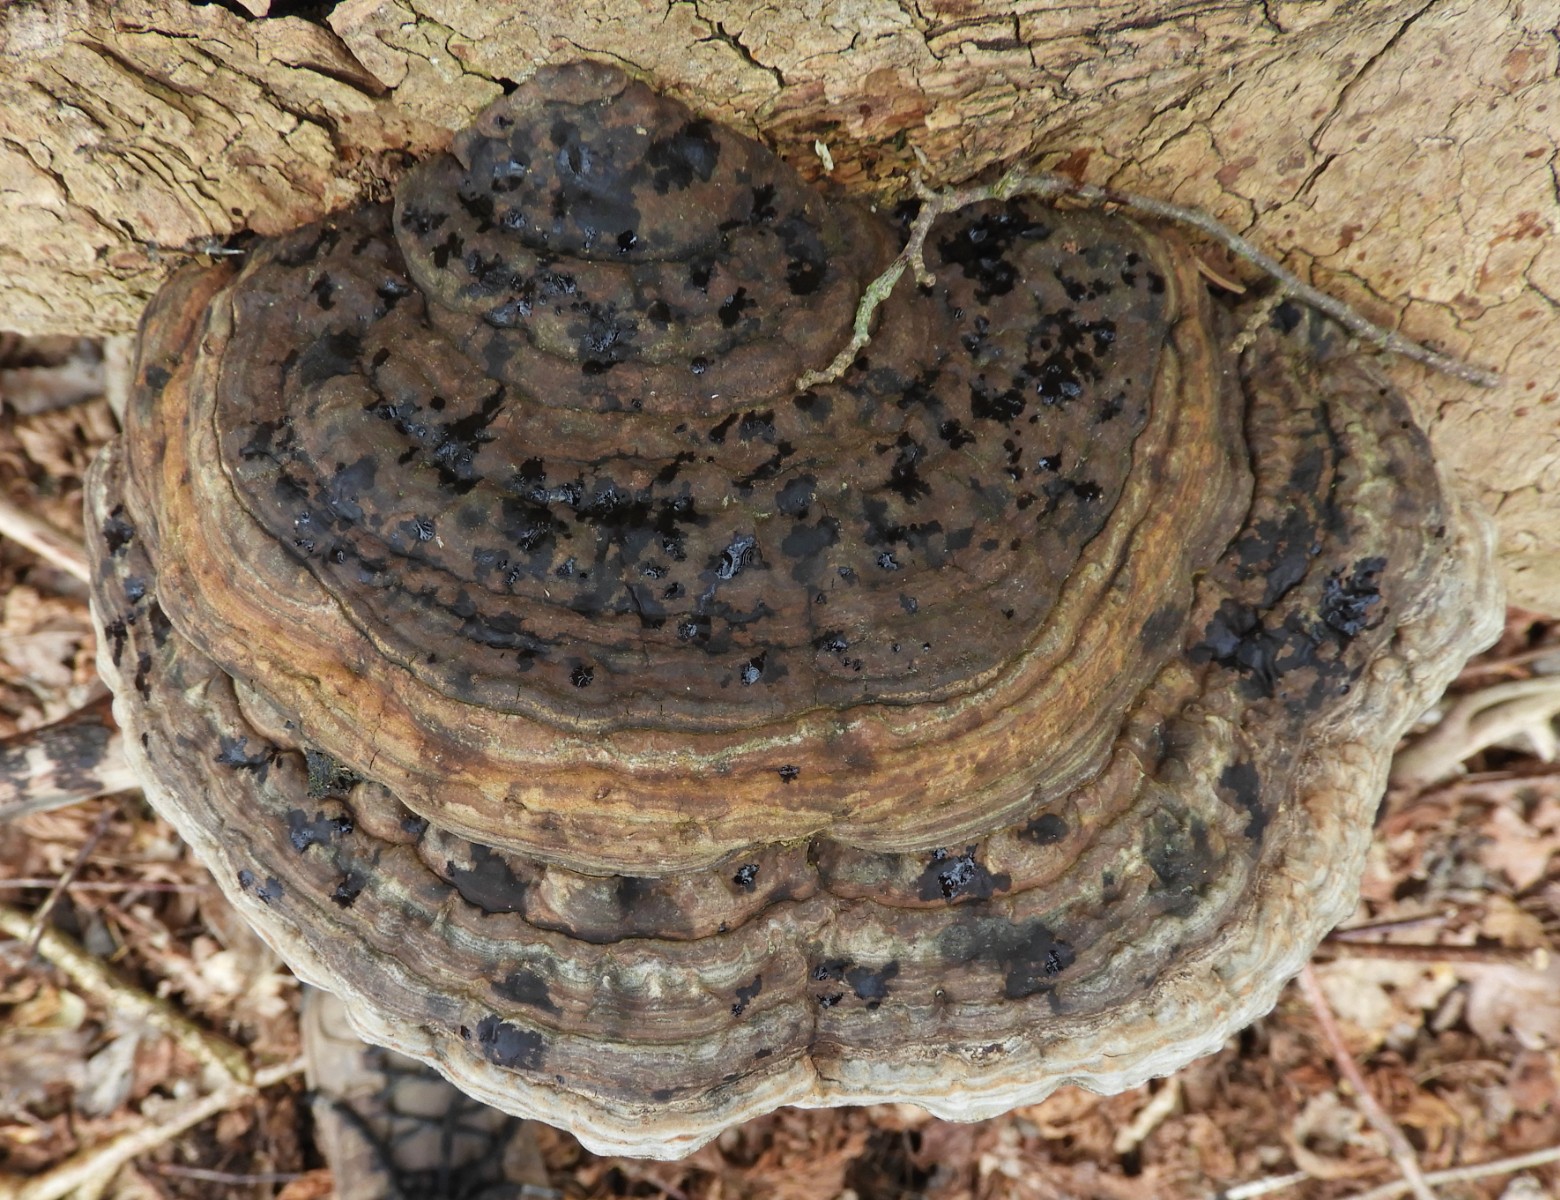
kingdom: Fungi
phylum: Basidiomycota
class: Agaricomycetes
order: Polyporales
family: Polyporaceae
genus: Ganoderma
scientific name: Ganoderma applanatum
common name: flad lakporesvamp
